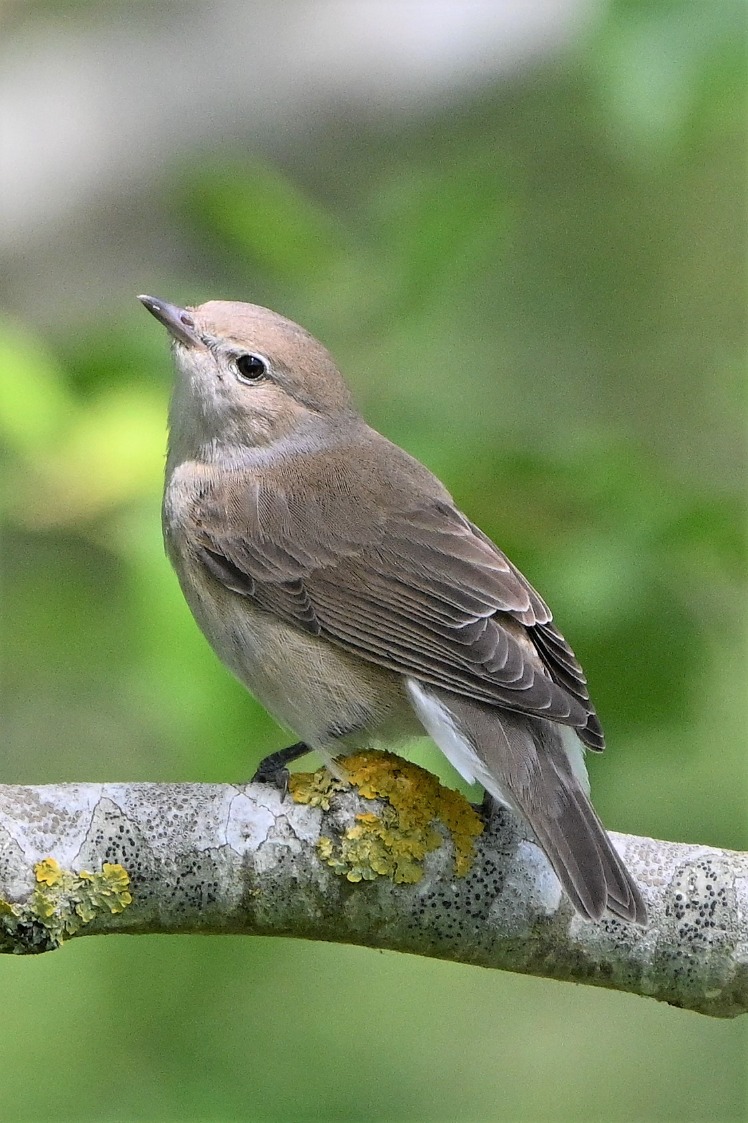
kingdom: Animalia
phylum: Chordata
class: Aves
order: Passeriformes
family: Sylviidae
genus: Sylvia
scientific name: Sylvia borin
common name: Havesanger
